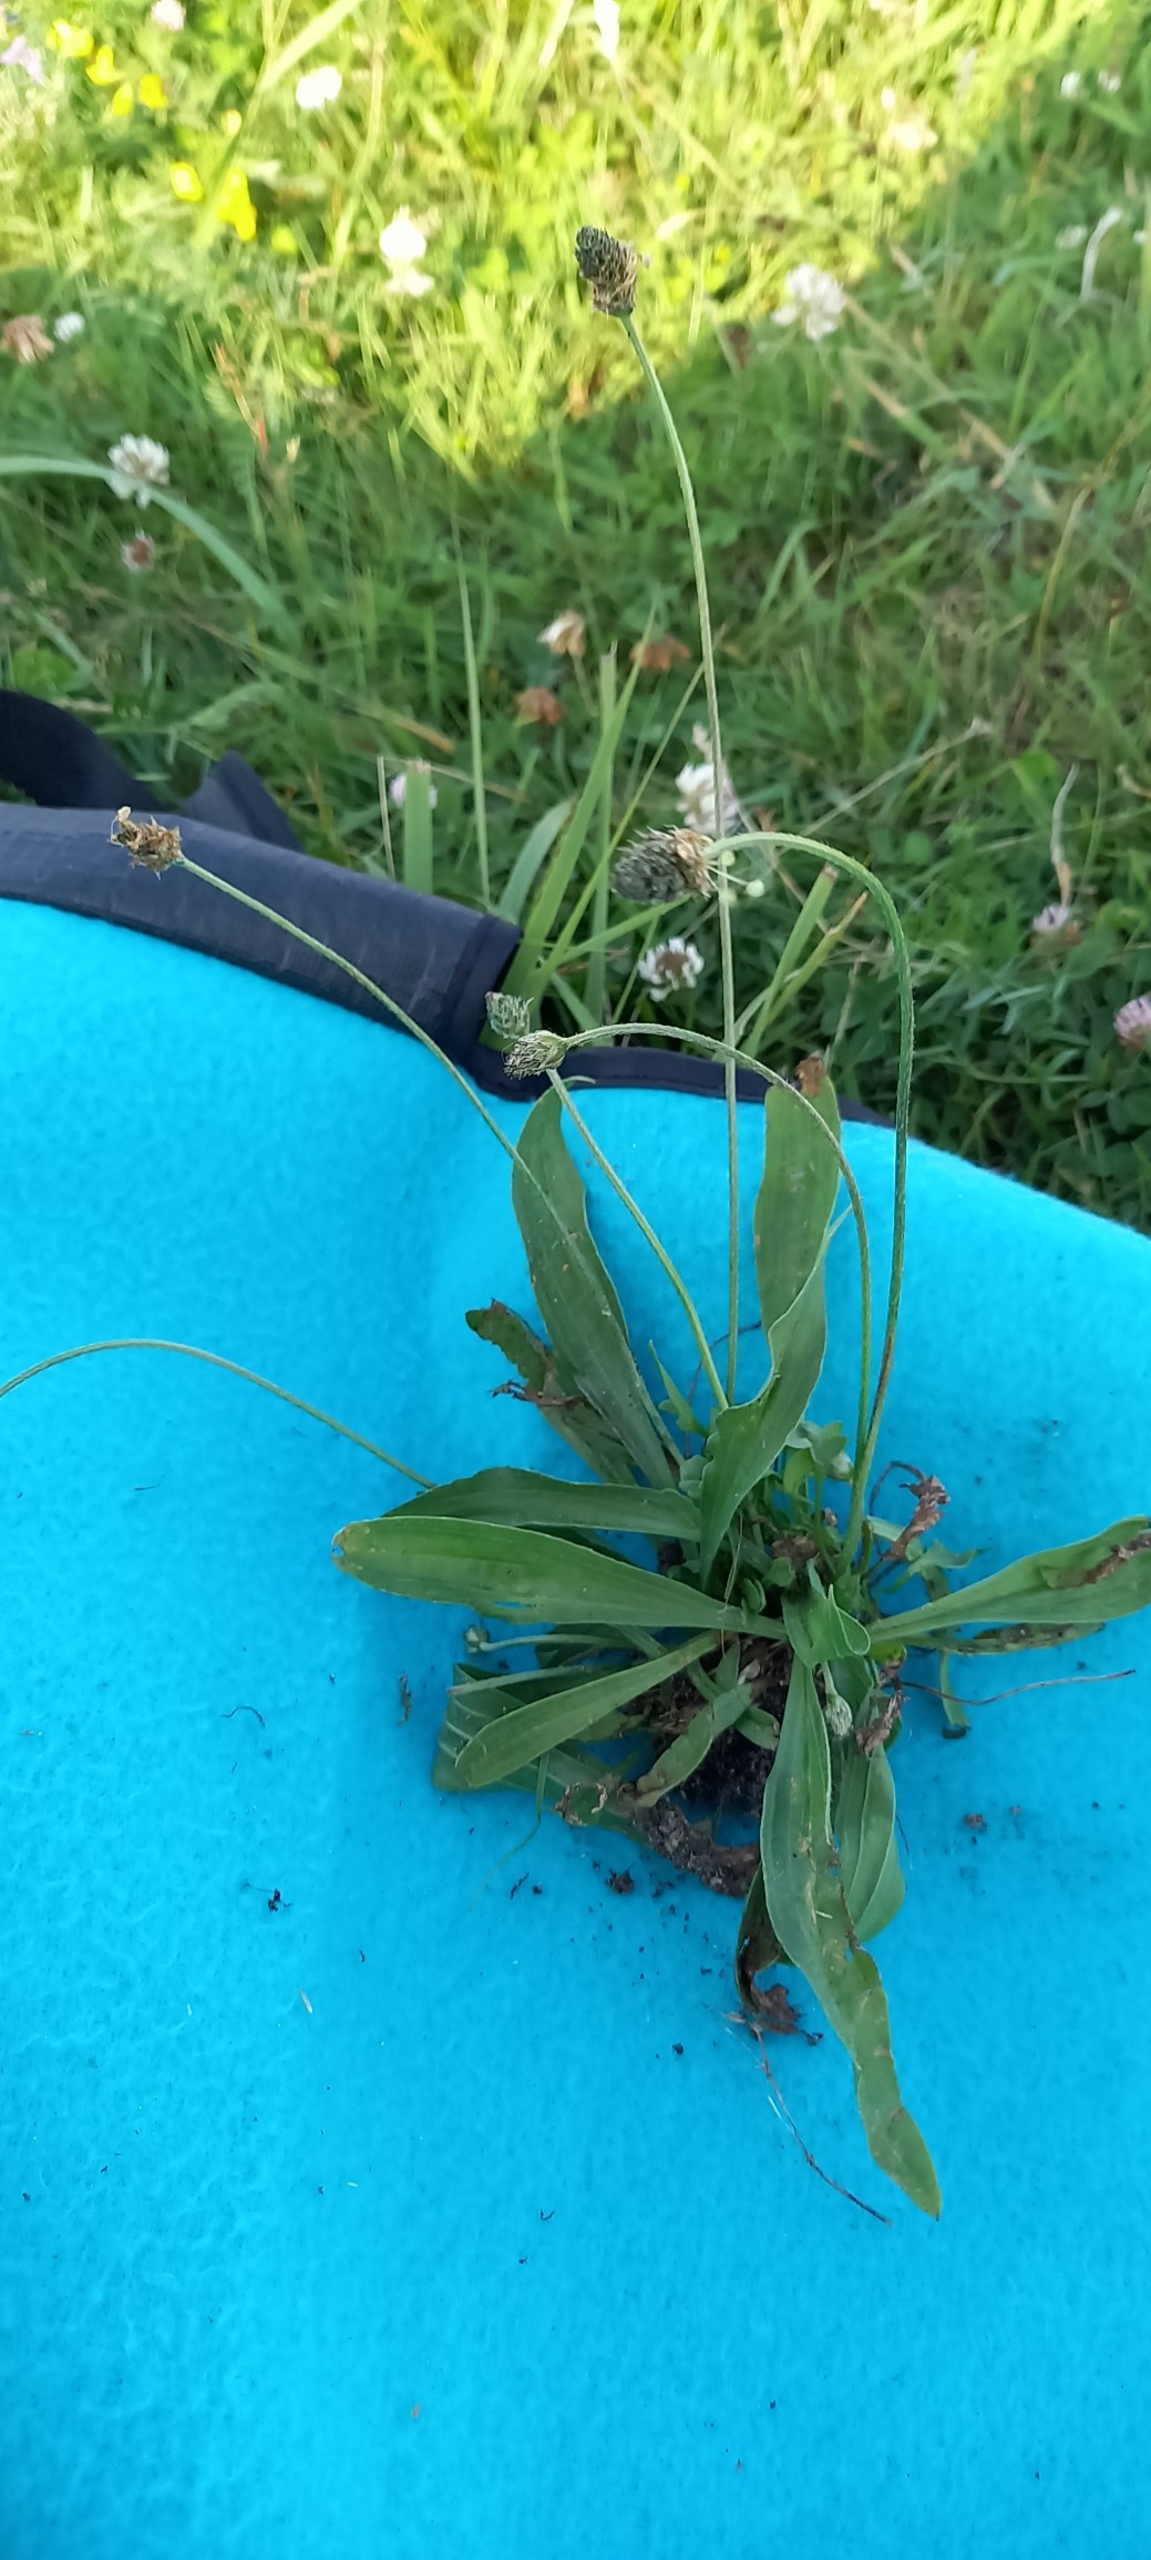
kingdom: Plantae
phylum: Tracheophyta
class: Magnoliopsida
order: Lamiales
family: Plantaginaceae
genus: Plantago
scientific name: Plantago lanceolata
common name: Lancet-vejbred
